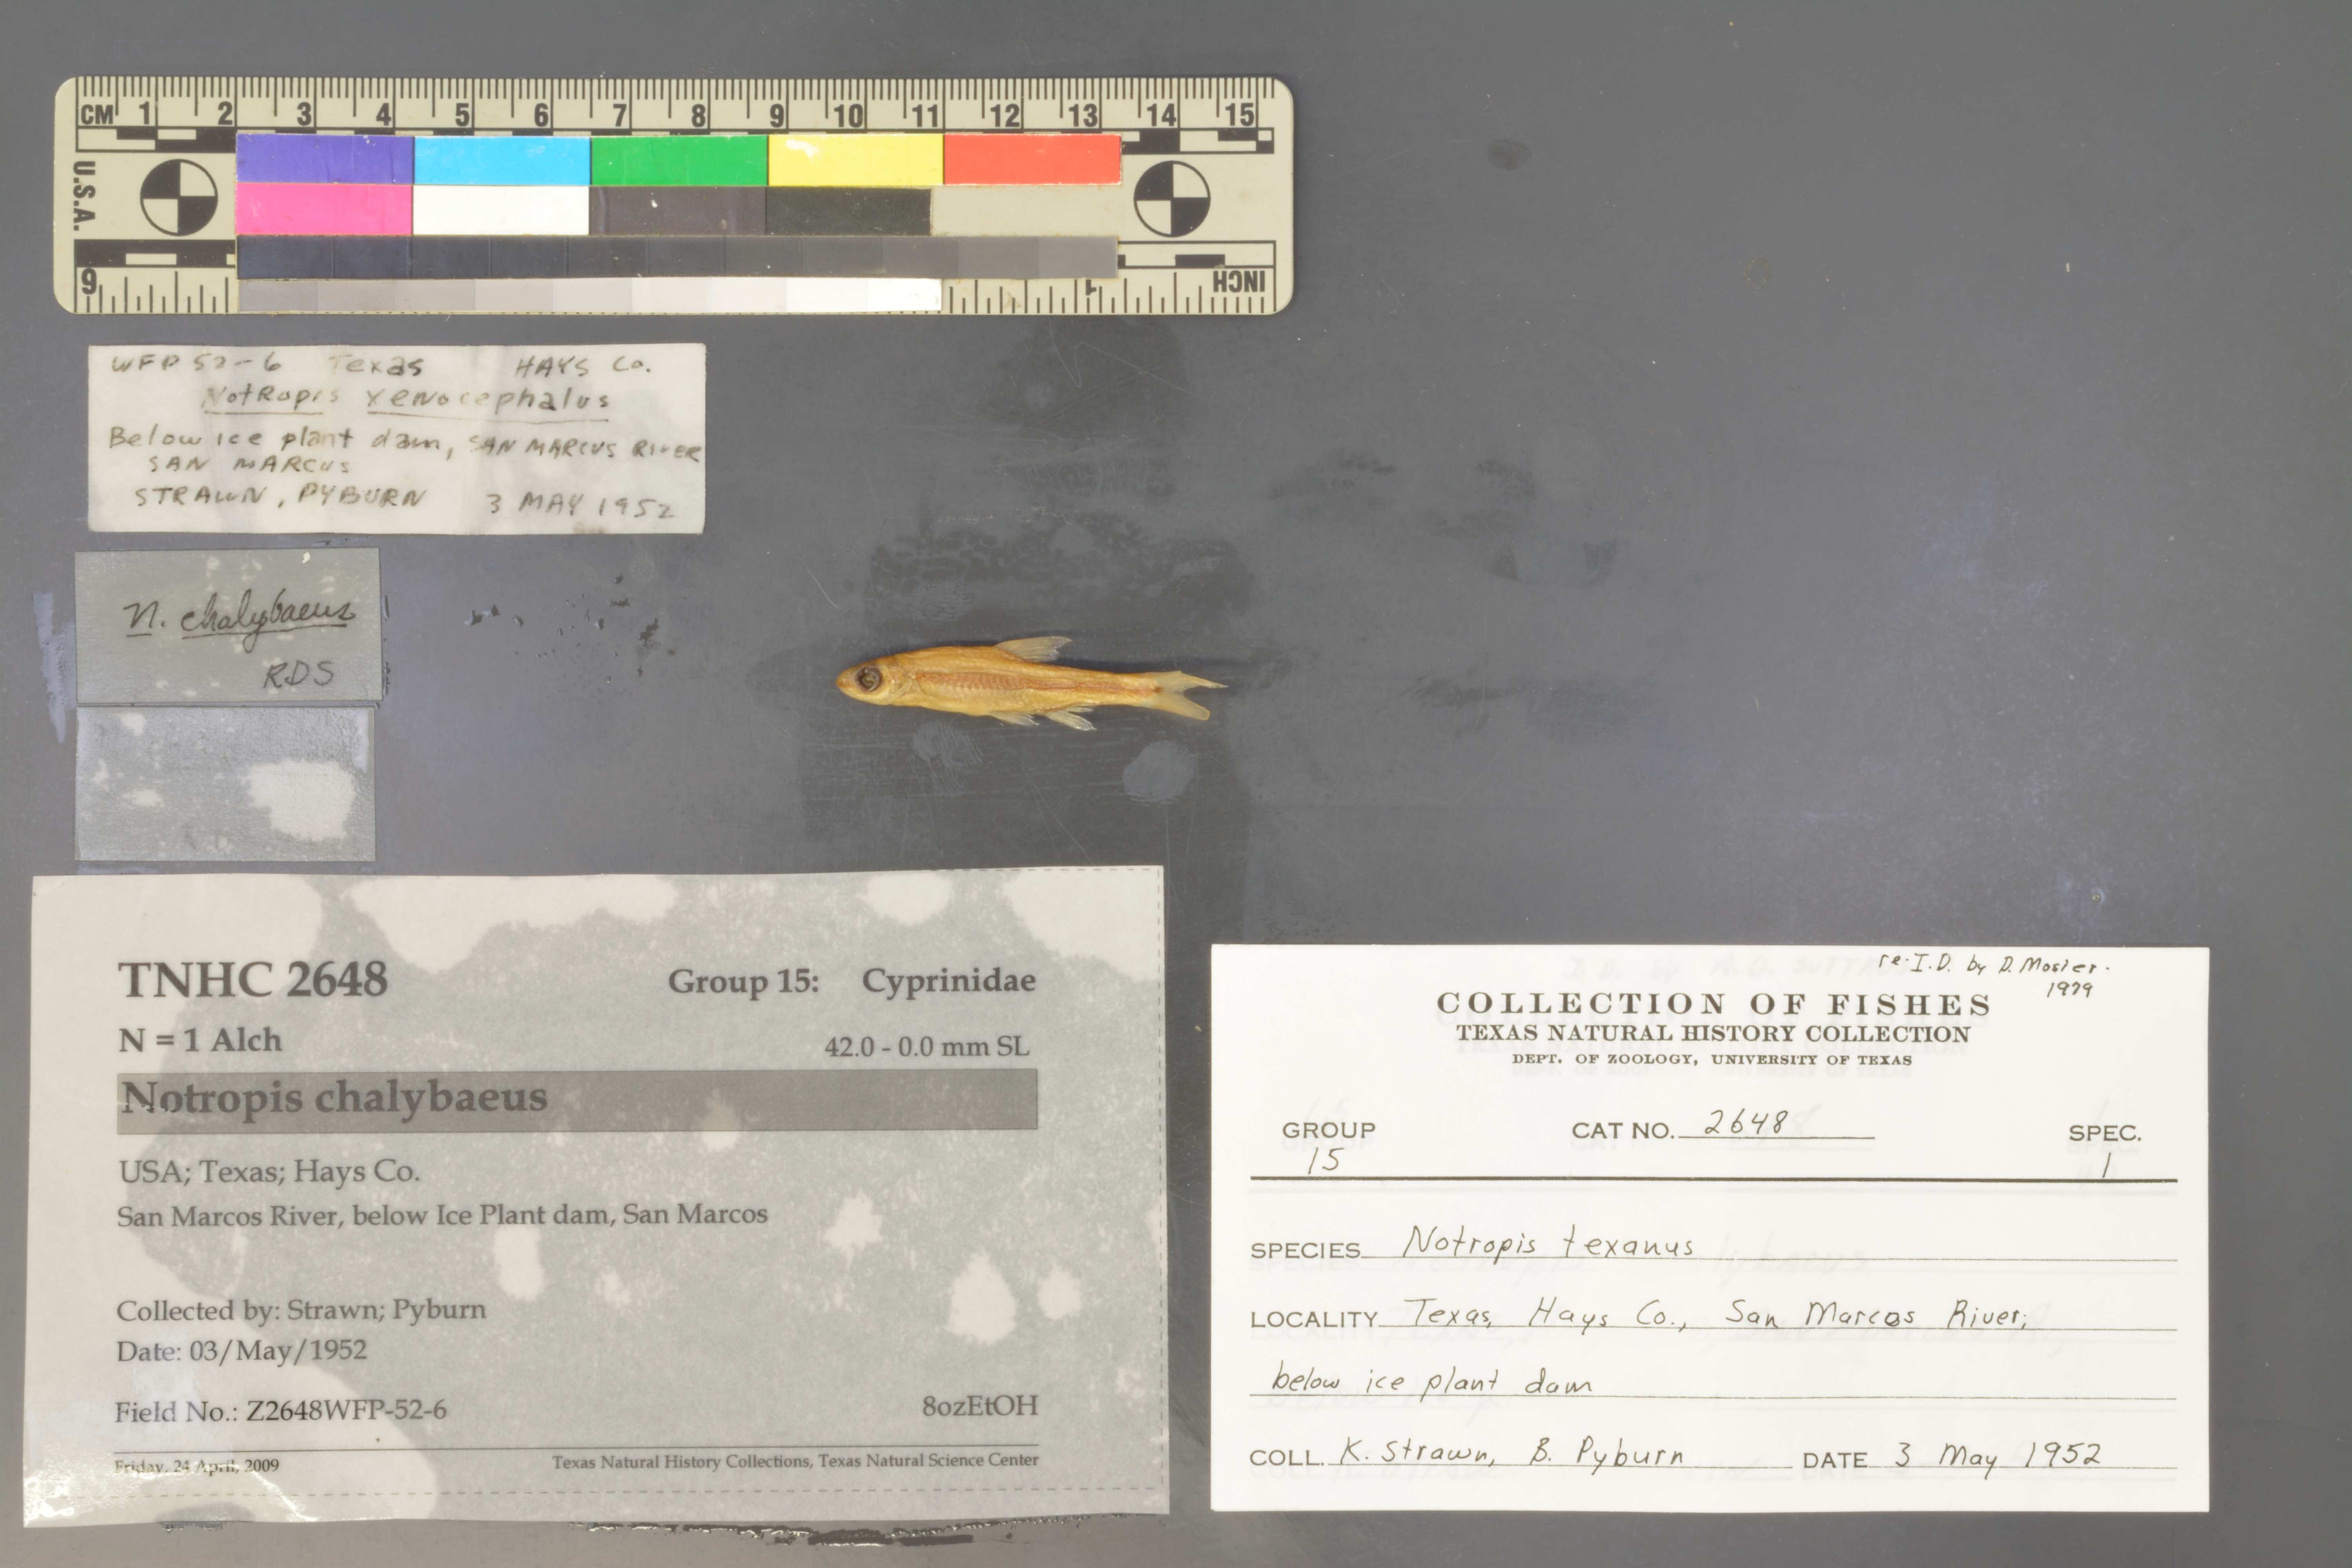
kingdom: Animalia
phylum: Chordata
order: Cypriniformes
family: Cyprinidae
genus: Notropis
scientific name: Notropis chalybaeus
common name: Ironcolor shiner
